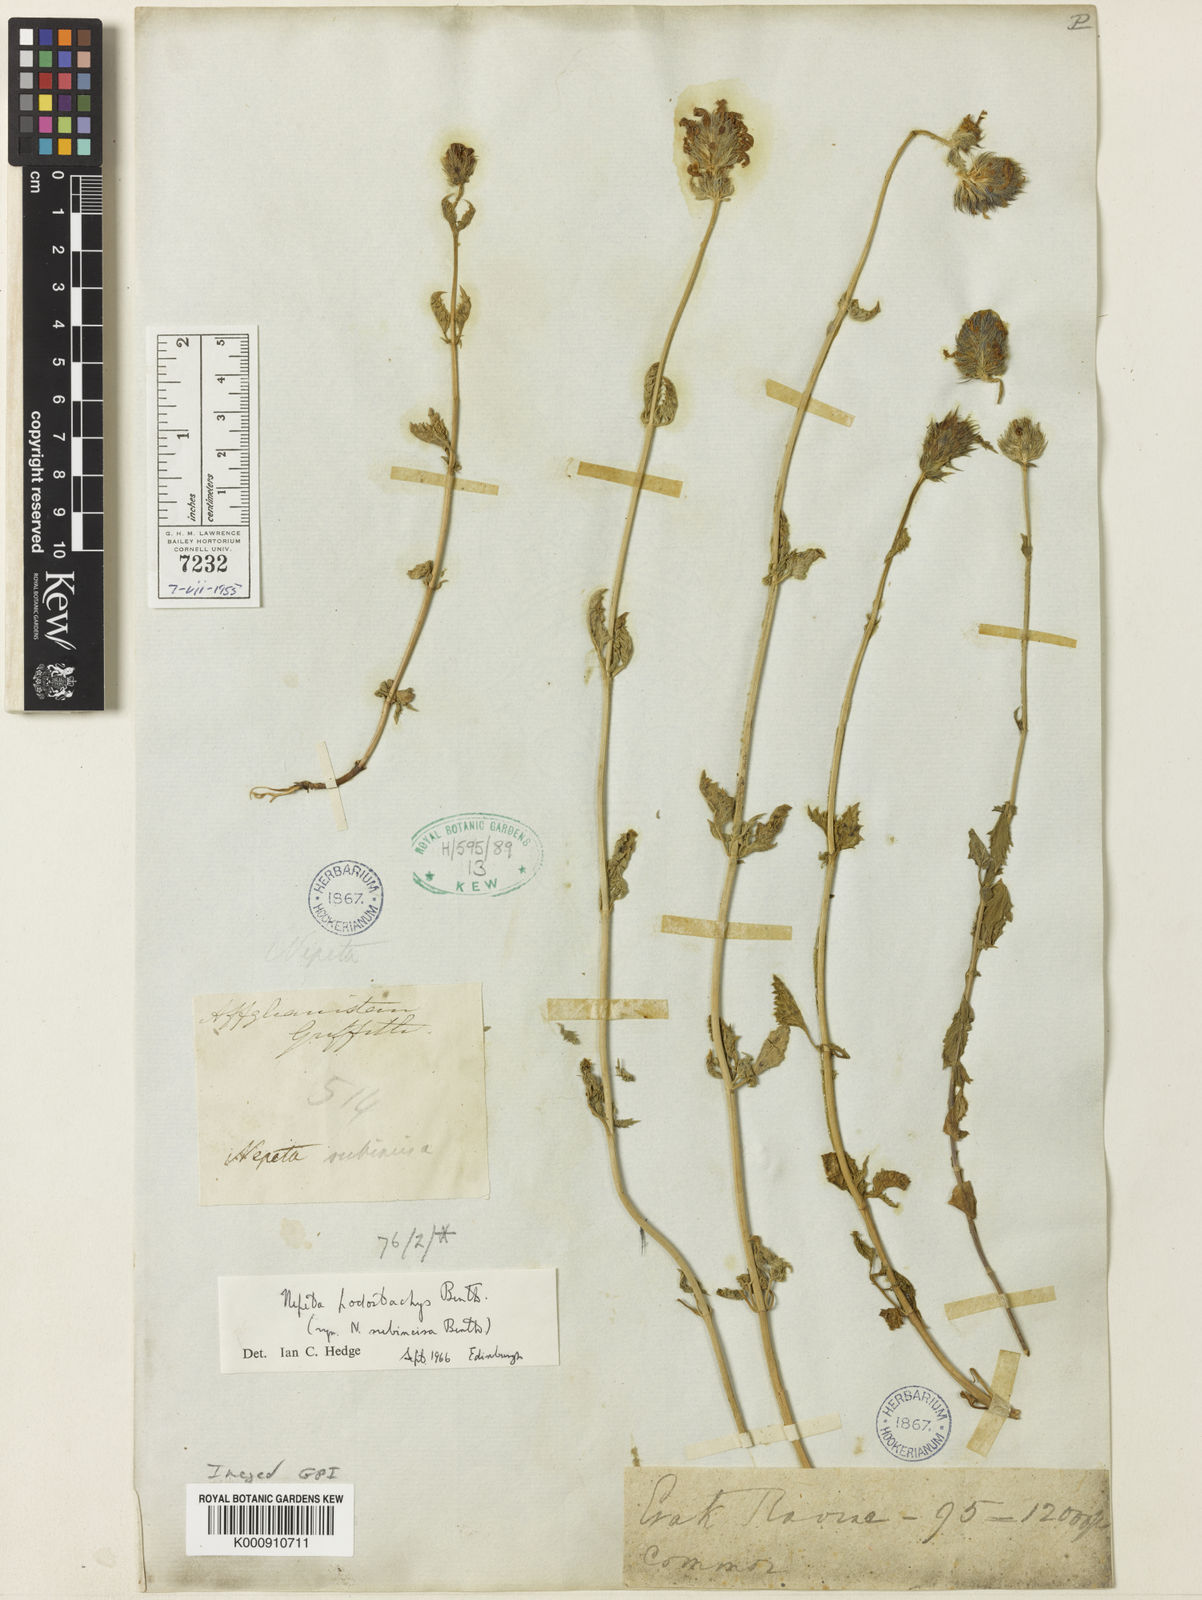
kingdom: Plantae
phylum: Tracheophyta
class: Magnoliopsida
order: Lamiales
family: Lamiaceae
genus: Nepeta
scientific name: Nepeta podostachys
